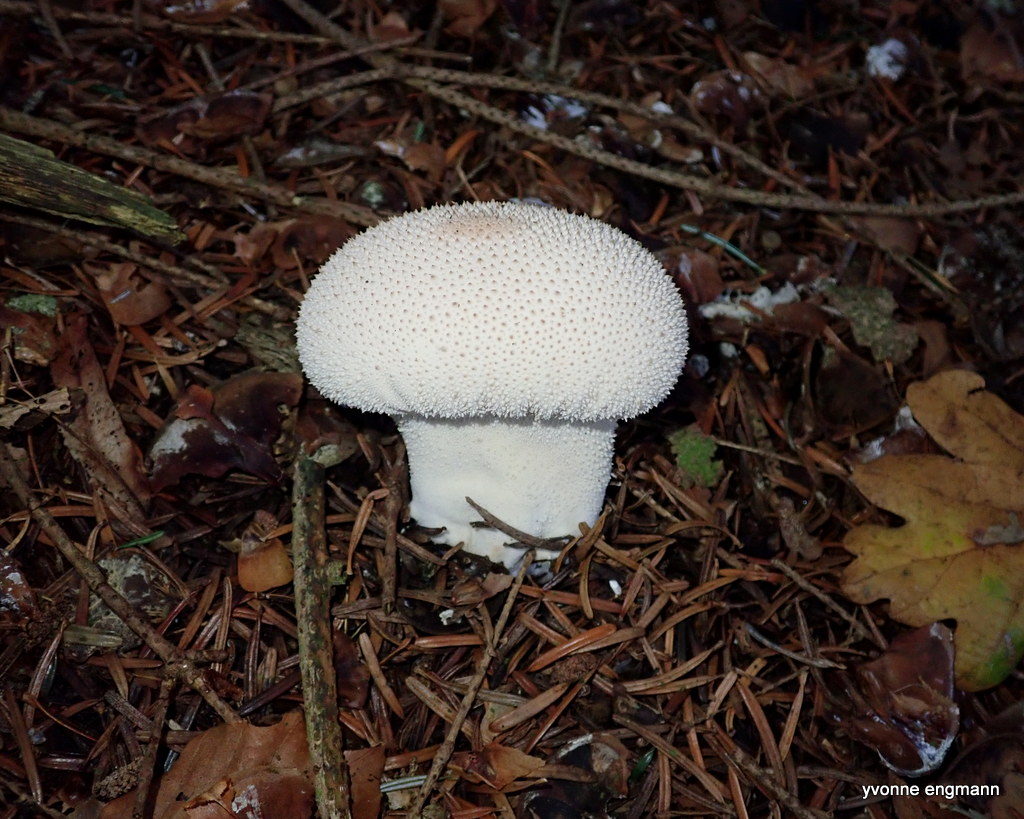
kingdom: Fungi
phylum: Basidiomycota
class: Agaricomycetes
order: Agaricales
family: Lycoperdaceae
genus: Lycoperdon
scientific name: Lycoperdon perlatum
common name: krystal-støvbold
